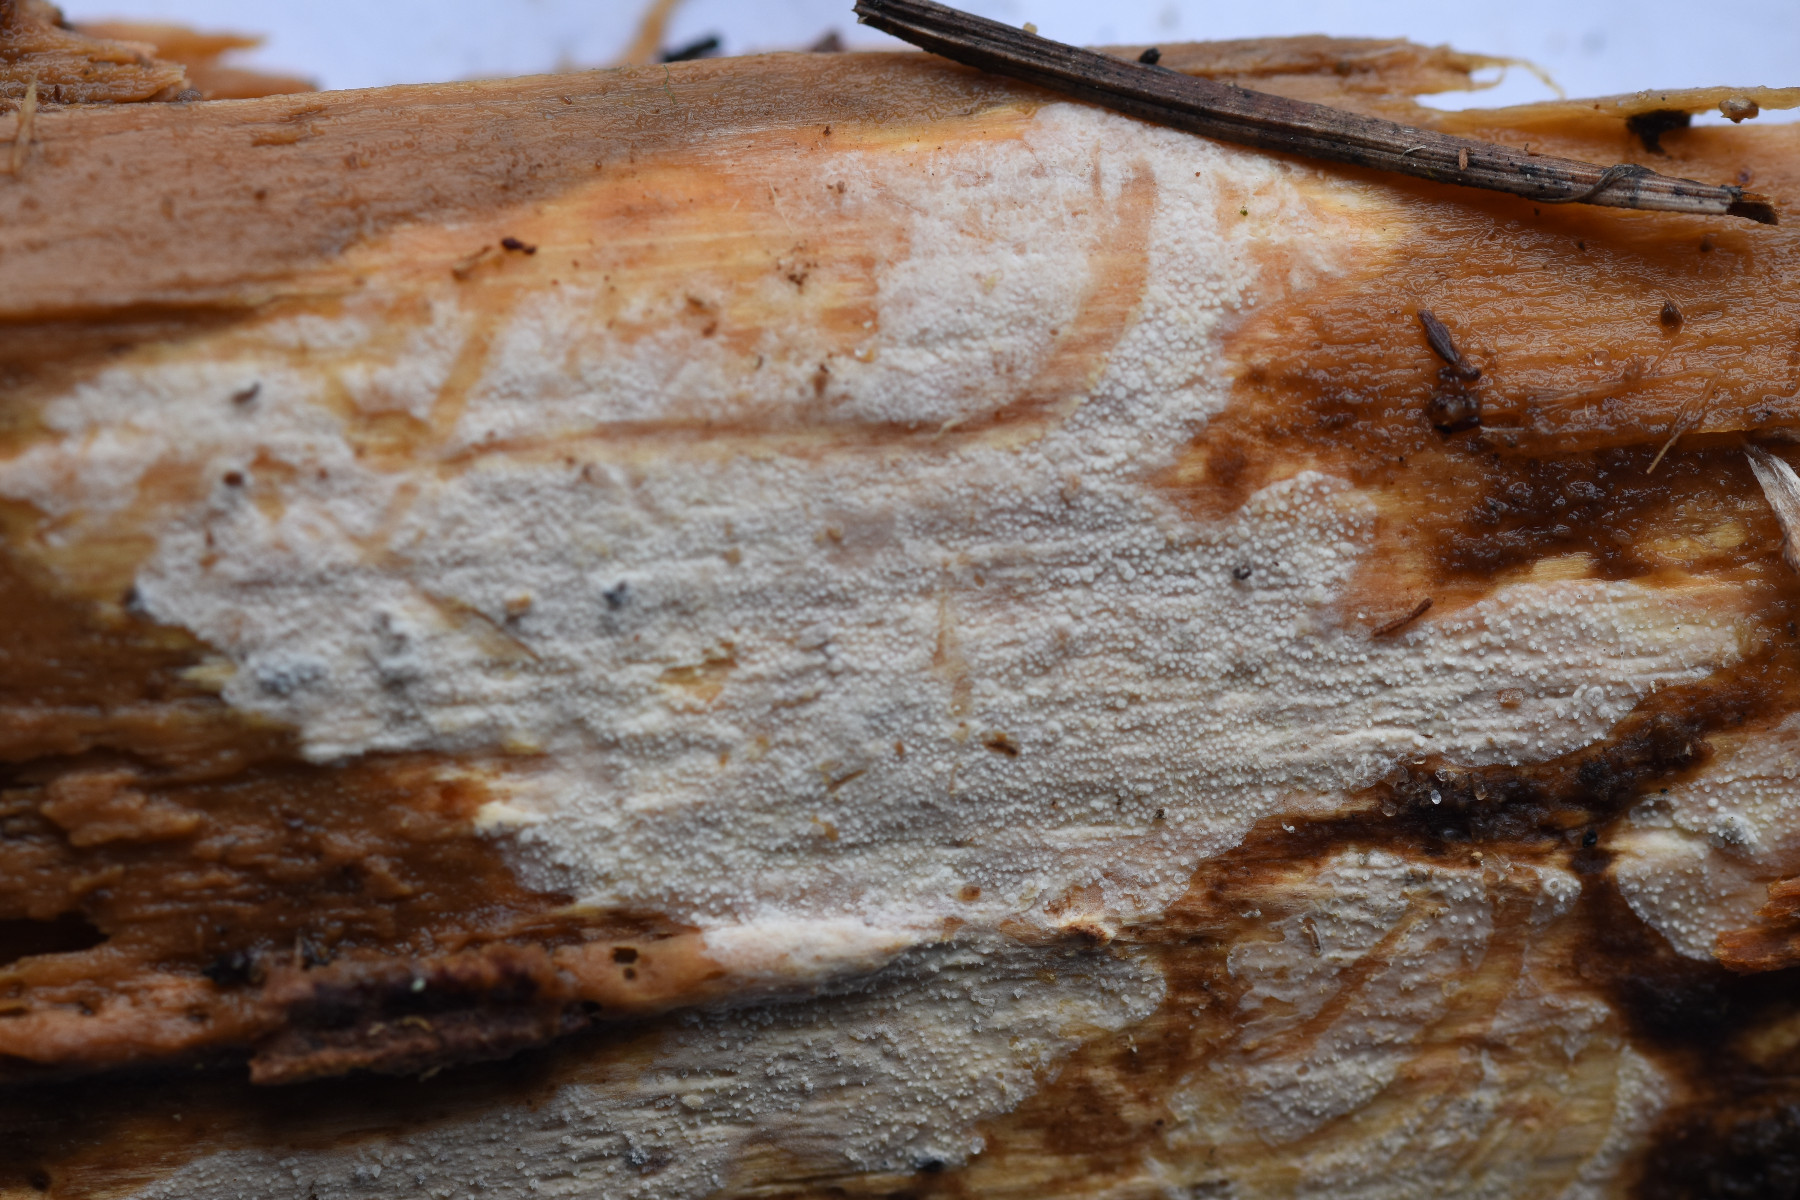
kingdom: Fungi
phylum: Basidiomycota
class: Agaricomycetes
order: Hymenochaetales
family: Rickenellaceae
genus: Resinicium
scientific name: Resinicium bicolor
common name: almindelig vokstand
